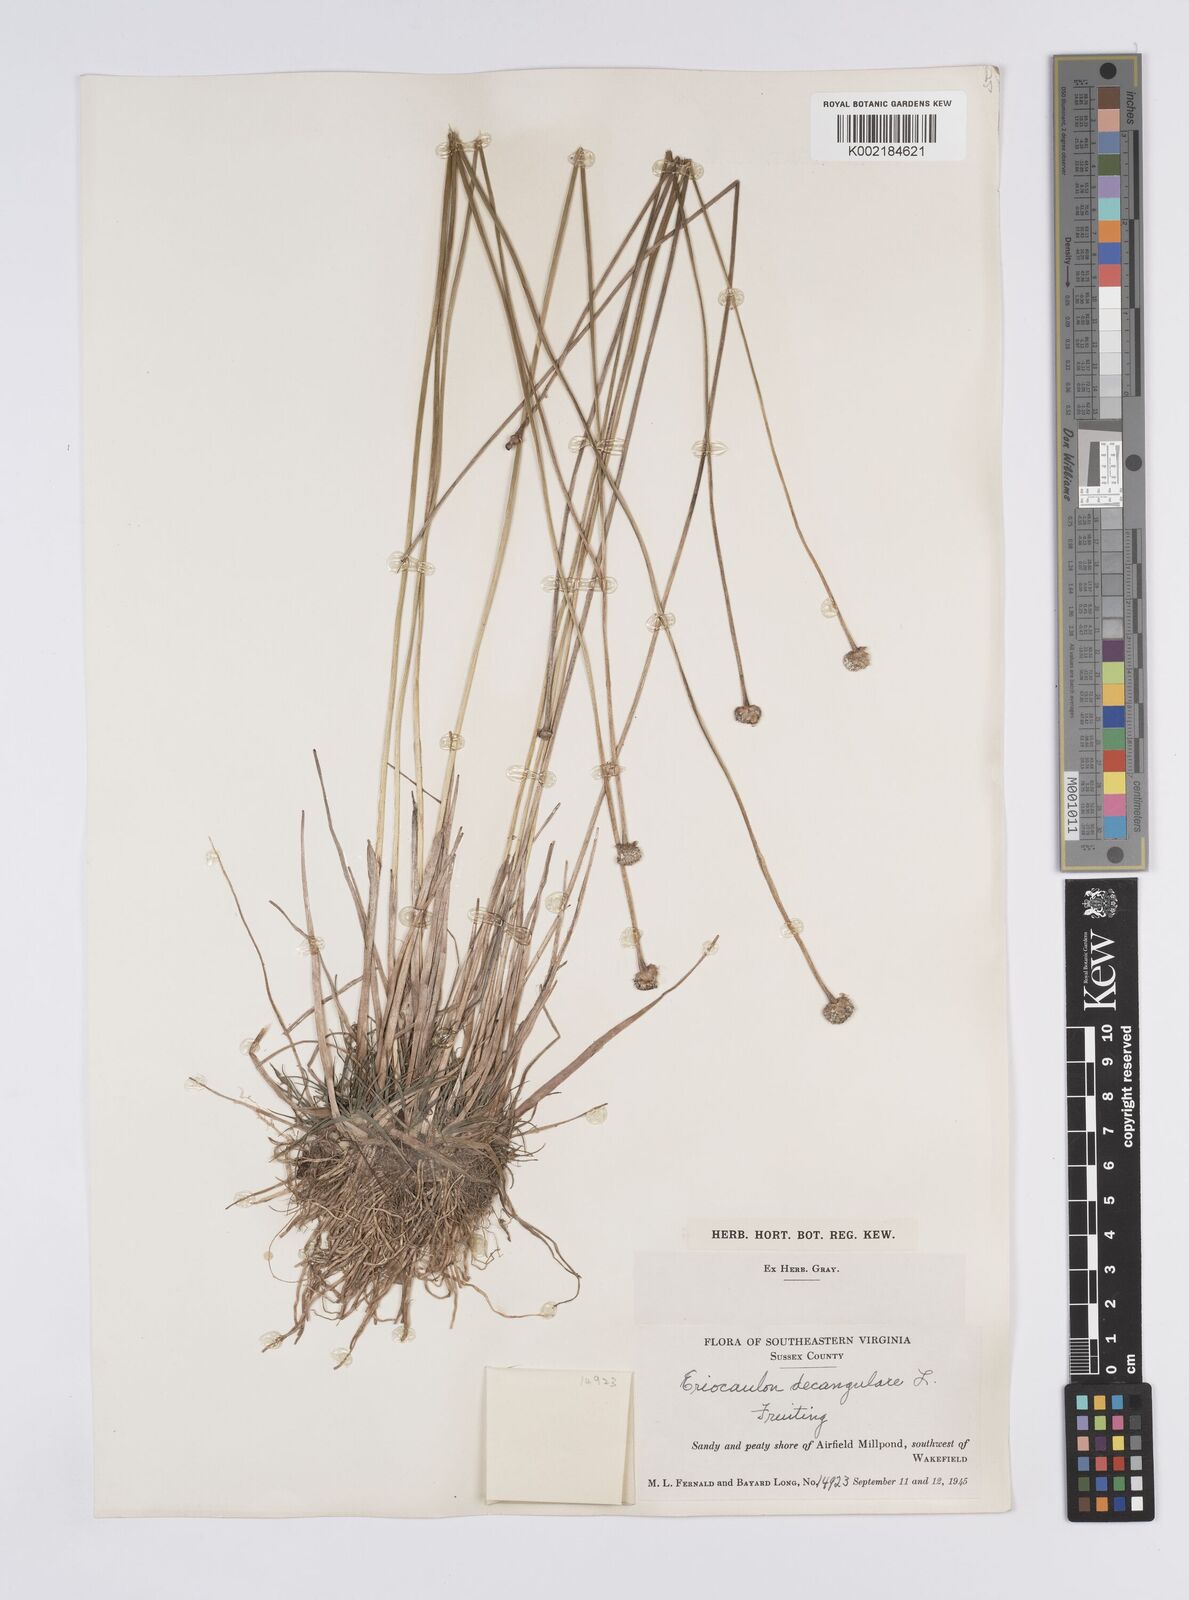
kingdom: Plantae
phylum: Tracheophyta
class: Liliopsida
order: Poales
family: Eriocaulaceae
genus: Eriocaulon
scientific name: Eriocaulon decangulare
